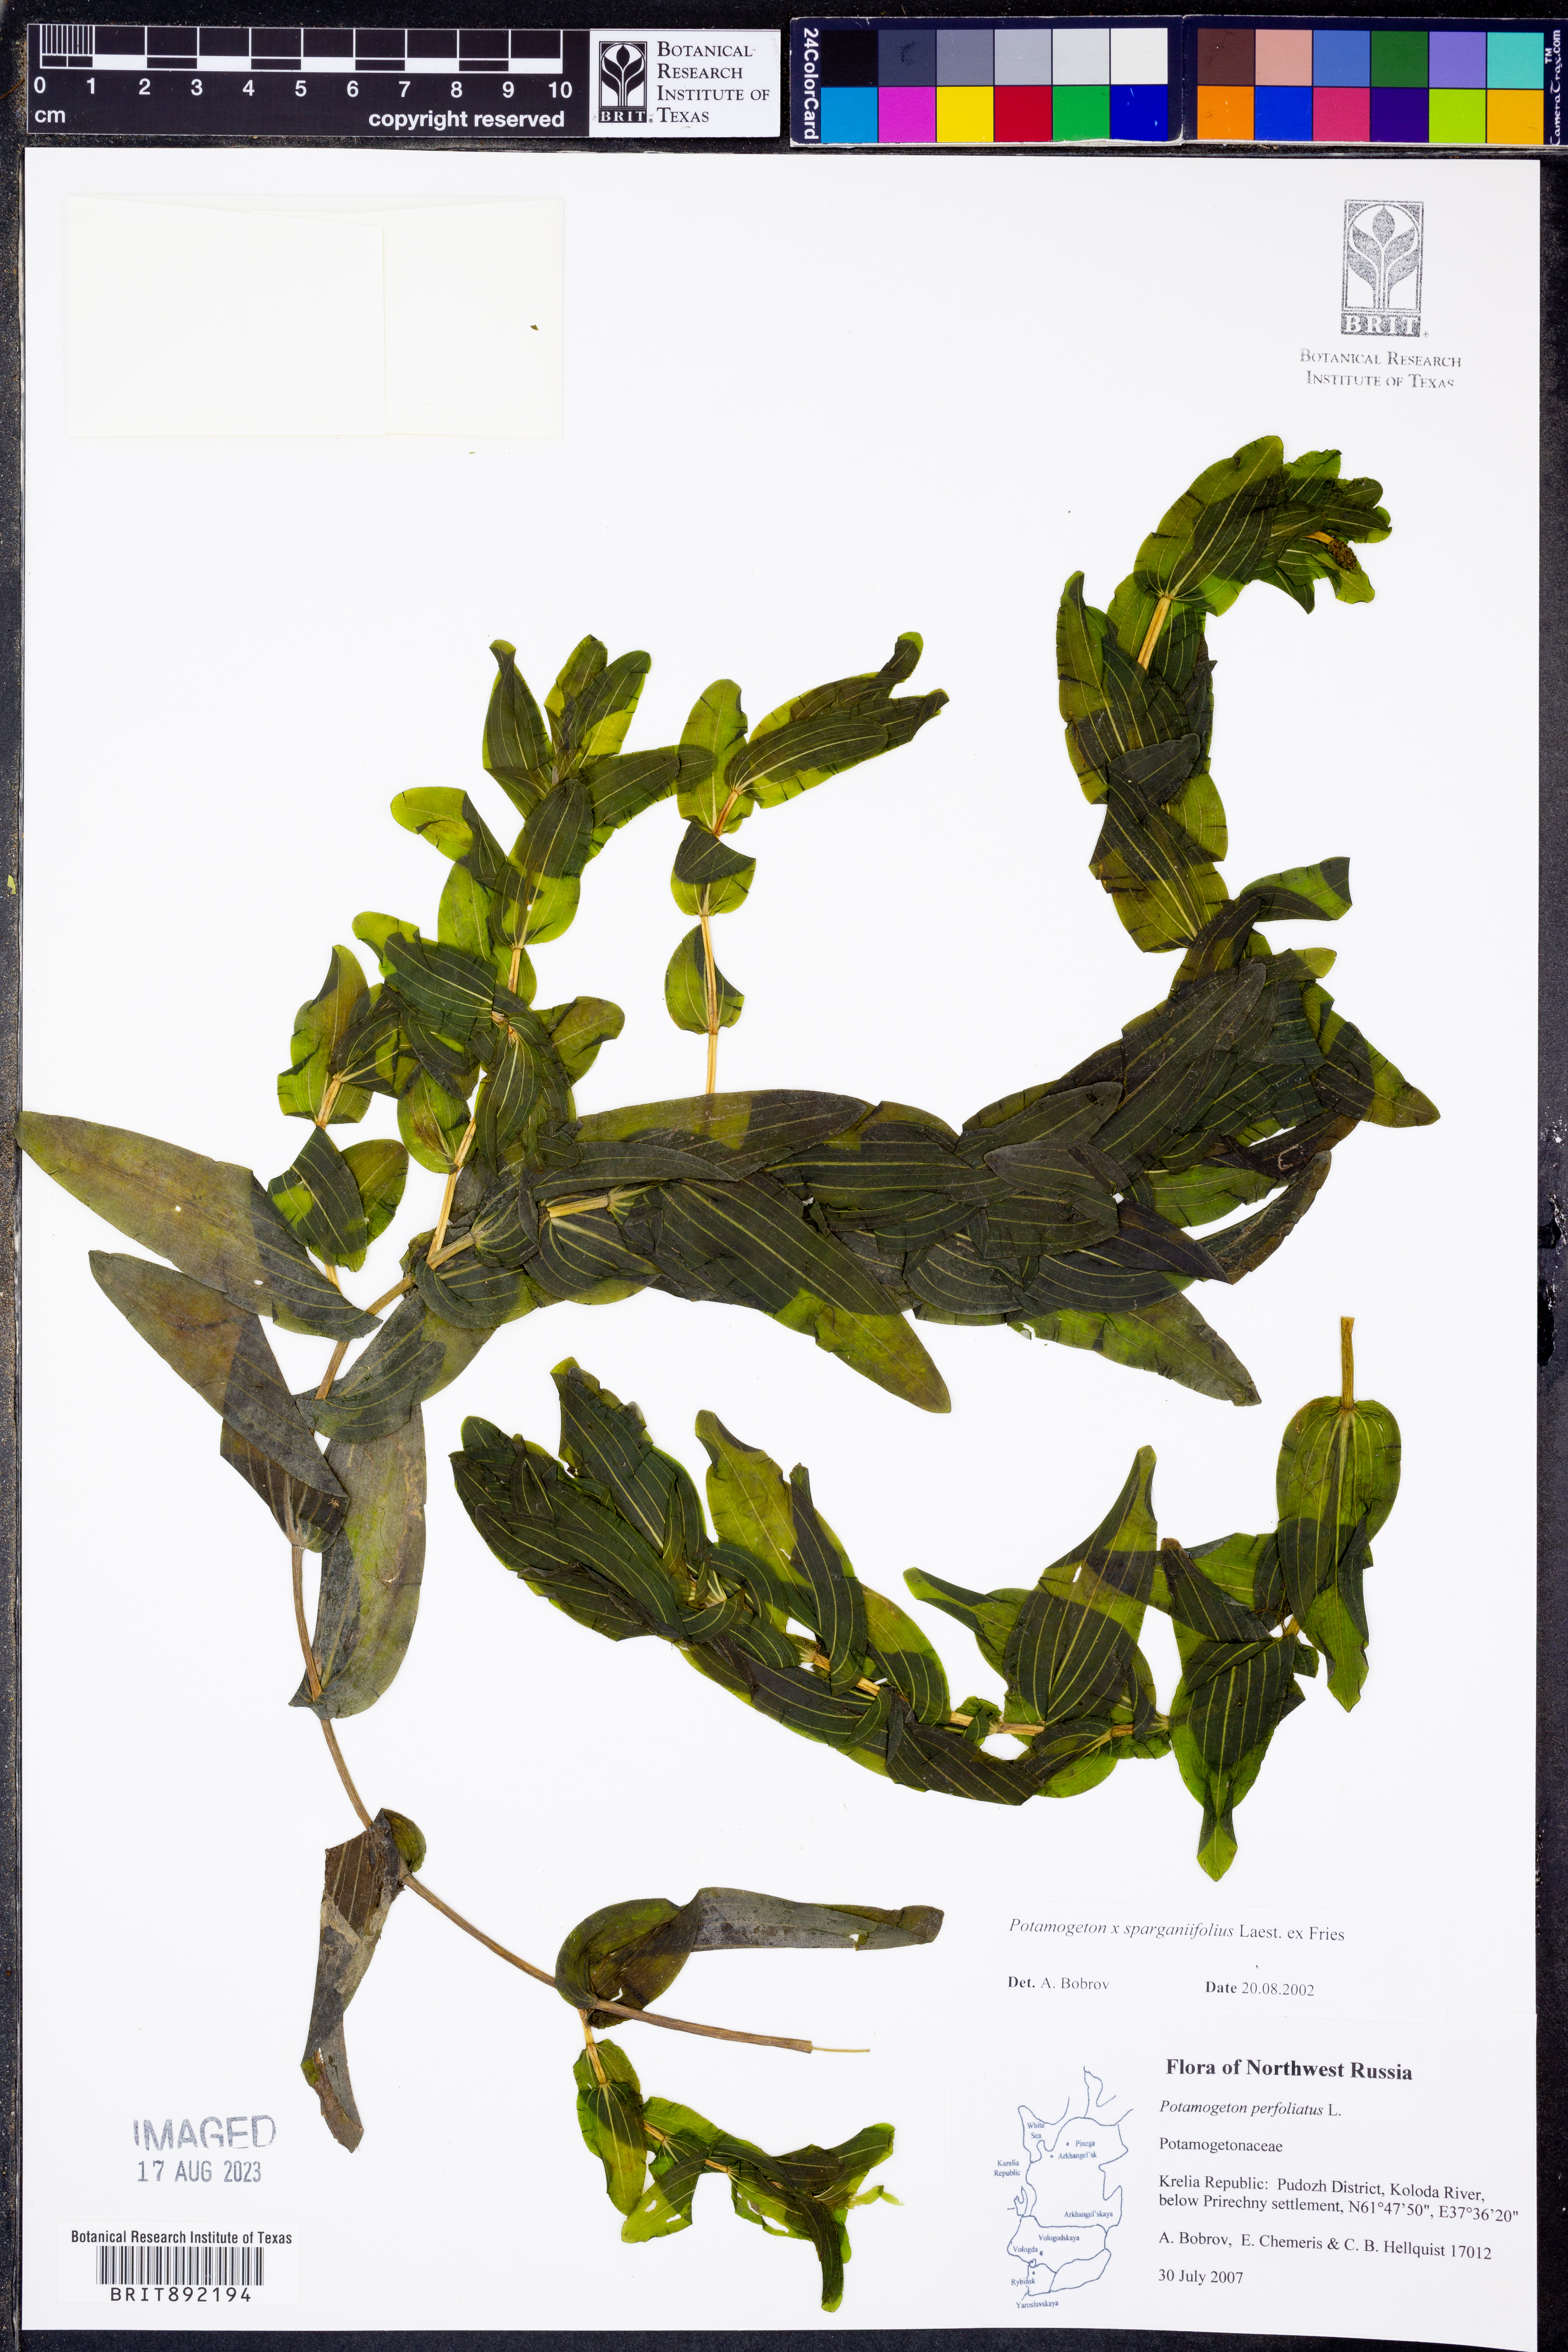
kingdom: Plantae
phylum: Tracheophyta
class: Liliopsida
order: Alismatales
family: Potamogetonaceae
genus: Potamogeton
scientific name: Potamogeton
